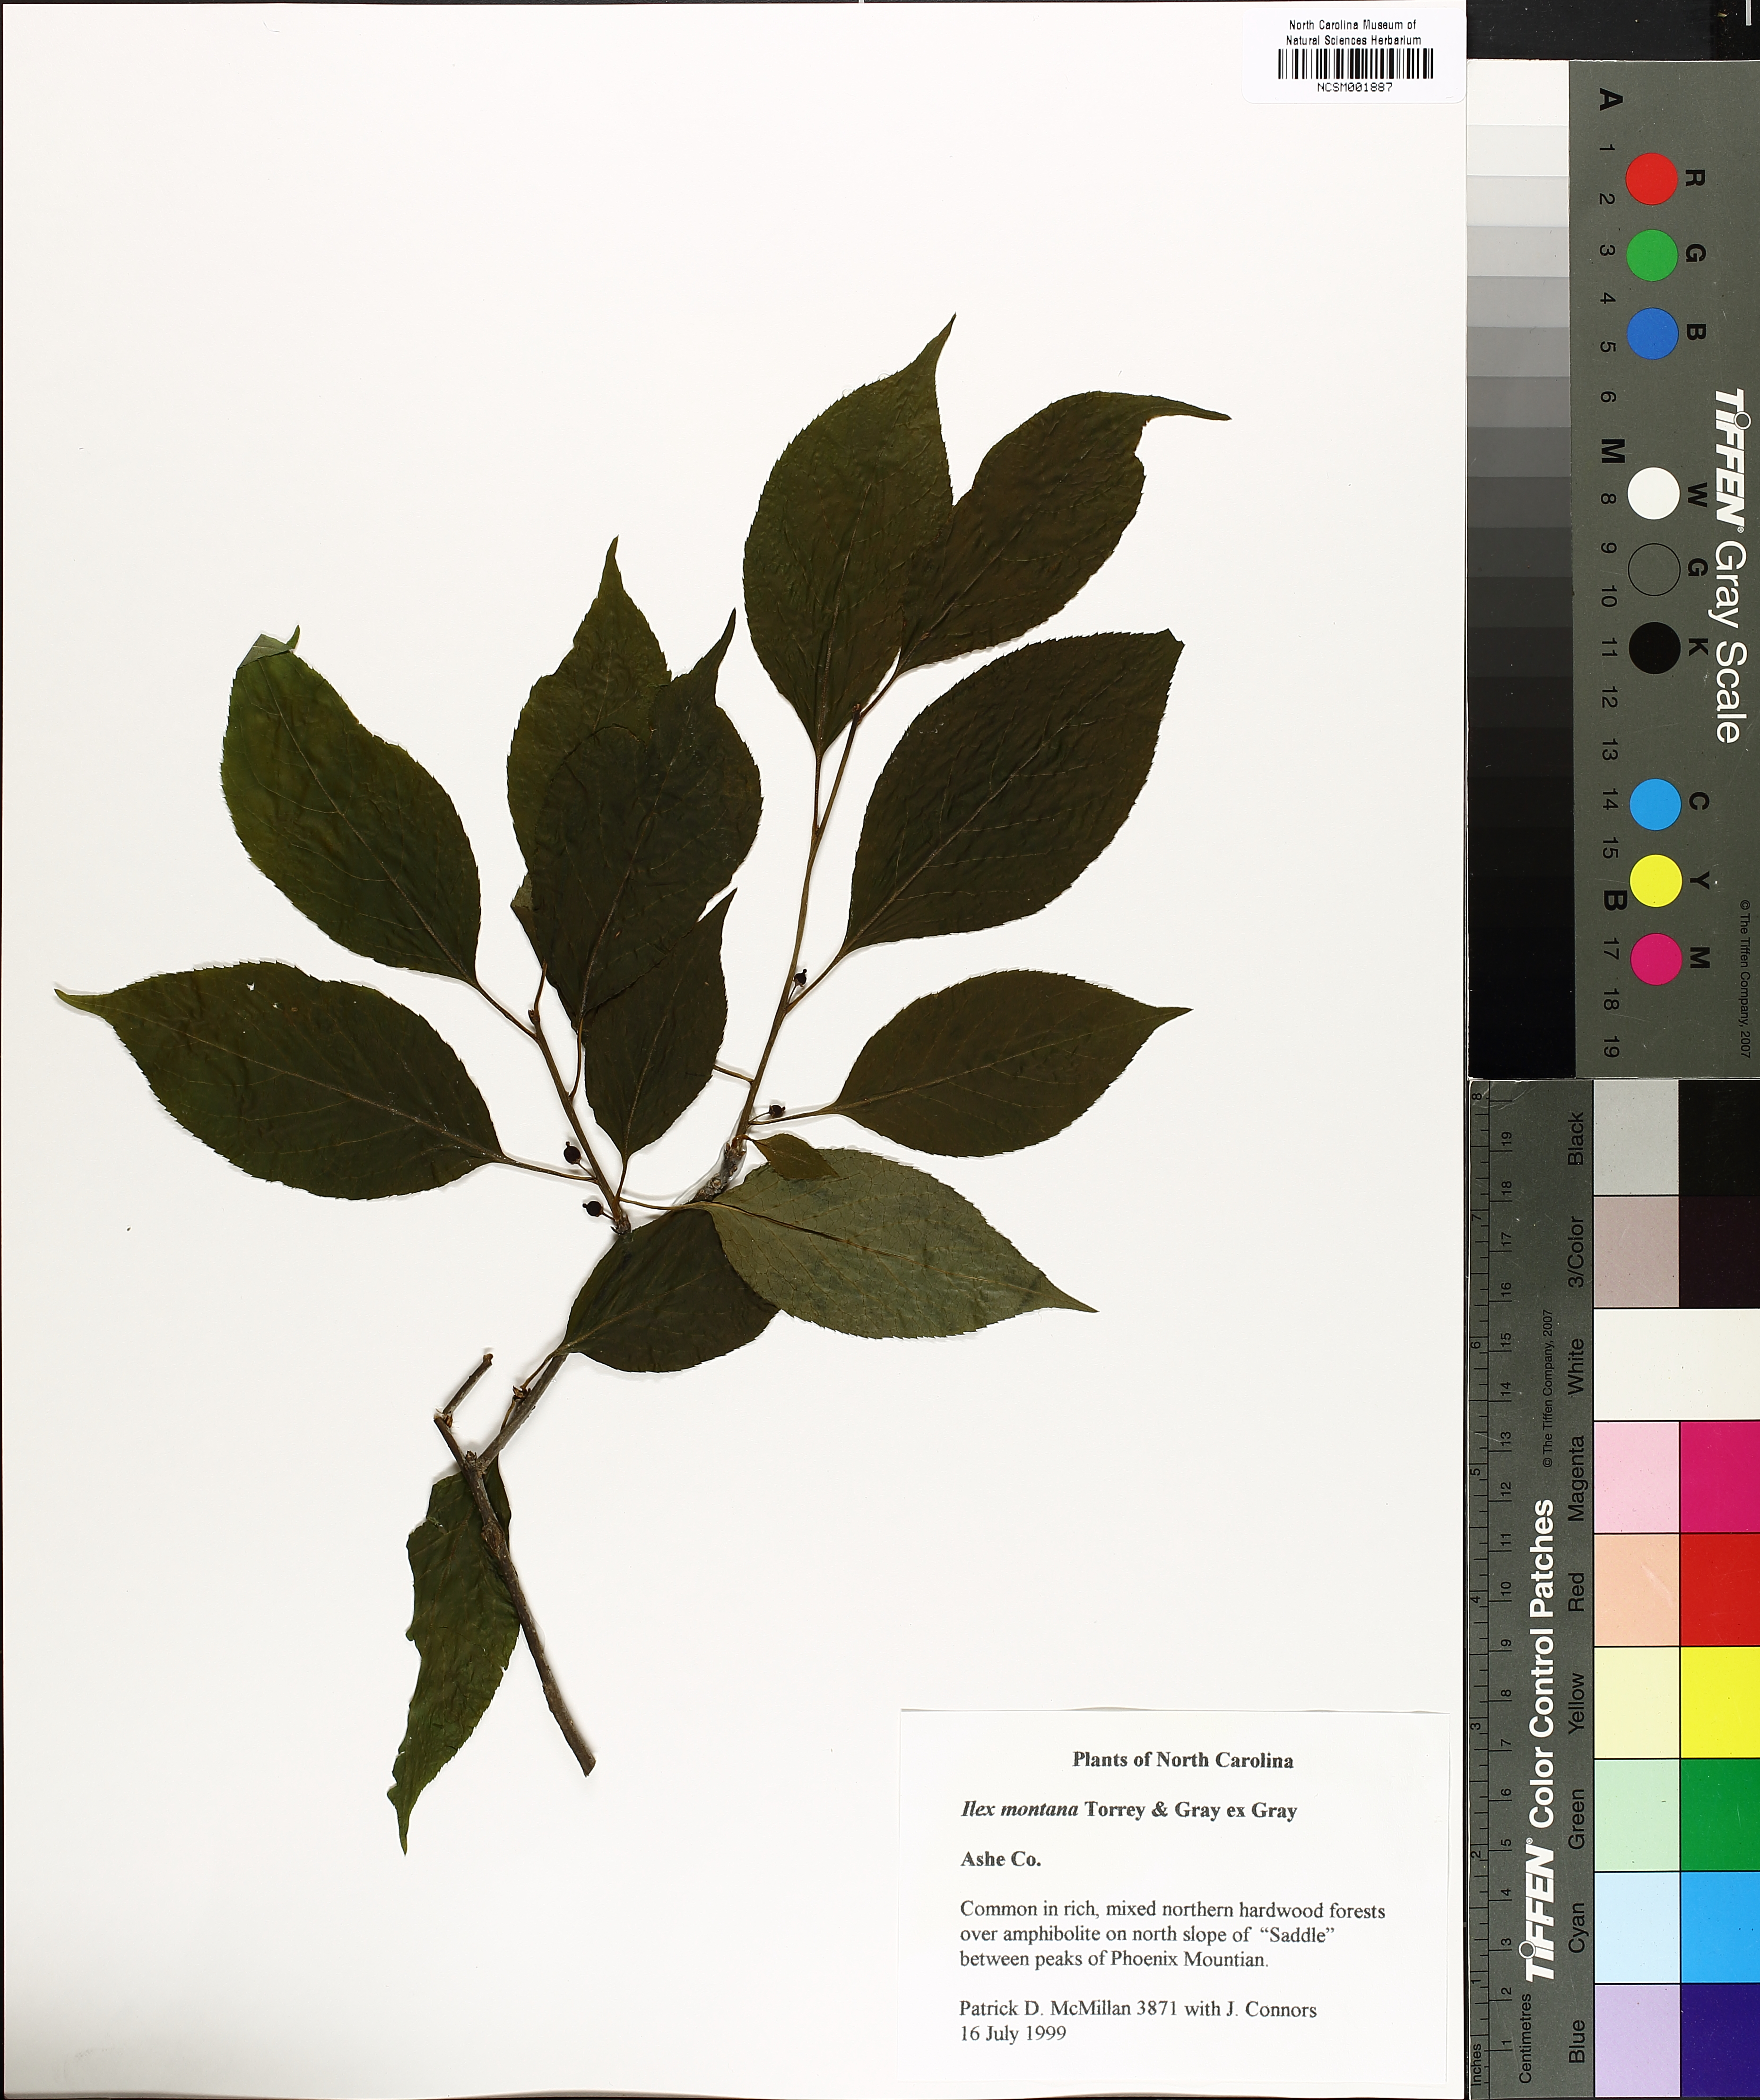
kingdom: Plantae
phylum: Tracheophyta
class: Magnoliopsida
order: Aquifoliales
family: Aquifoliaceae
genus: Ilex
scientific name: Ilex montana
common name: Mountain winterberry
